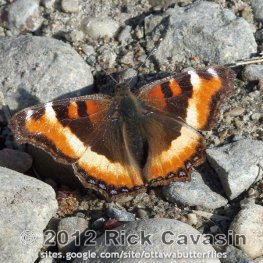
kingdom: Animalia
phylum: Arthropoda
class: Insecta
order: Lepidoptera
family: Nymphalidae
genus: Aglais
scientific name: Aglais milberti
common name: Milbert's Tortoiseshell
